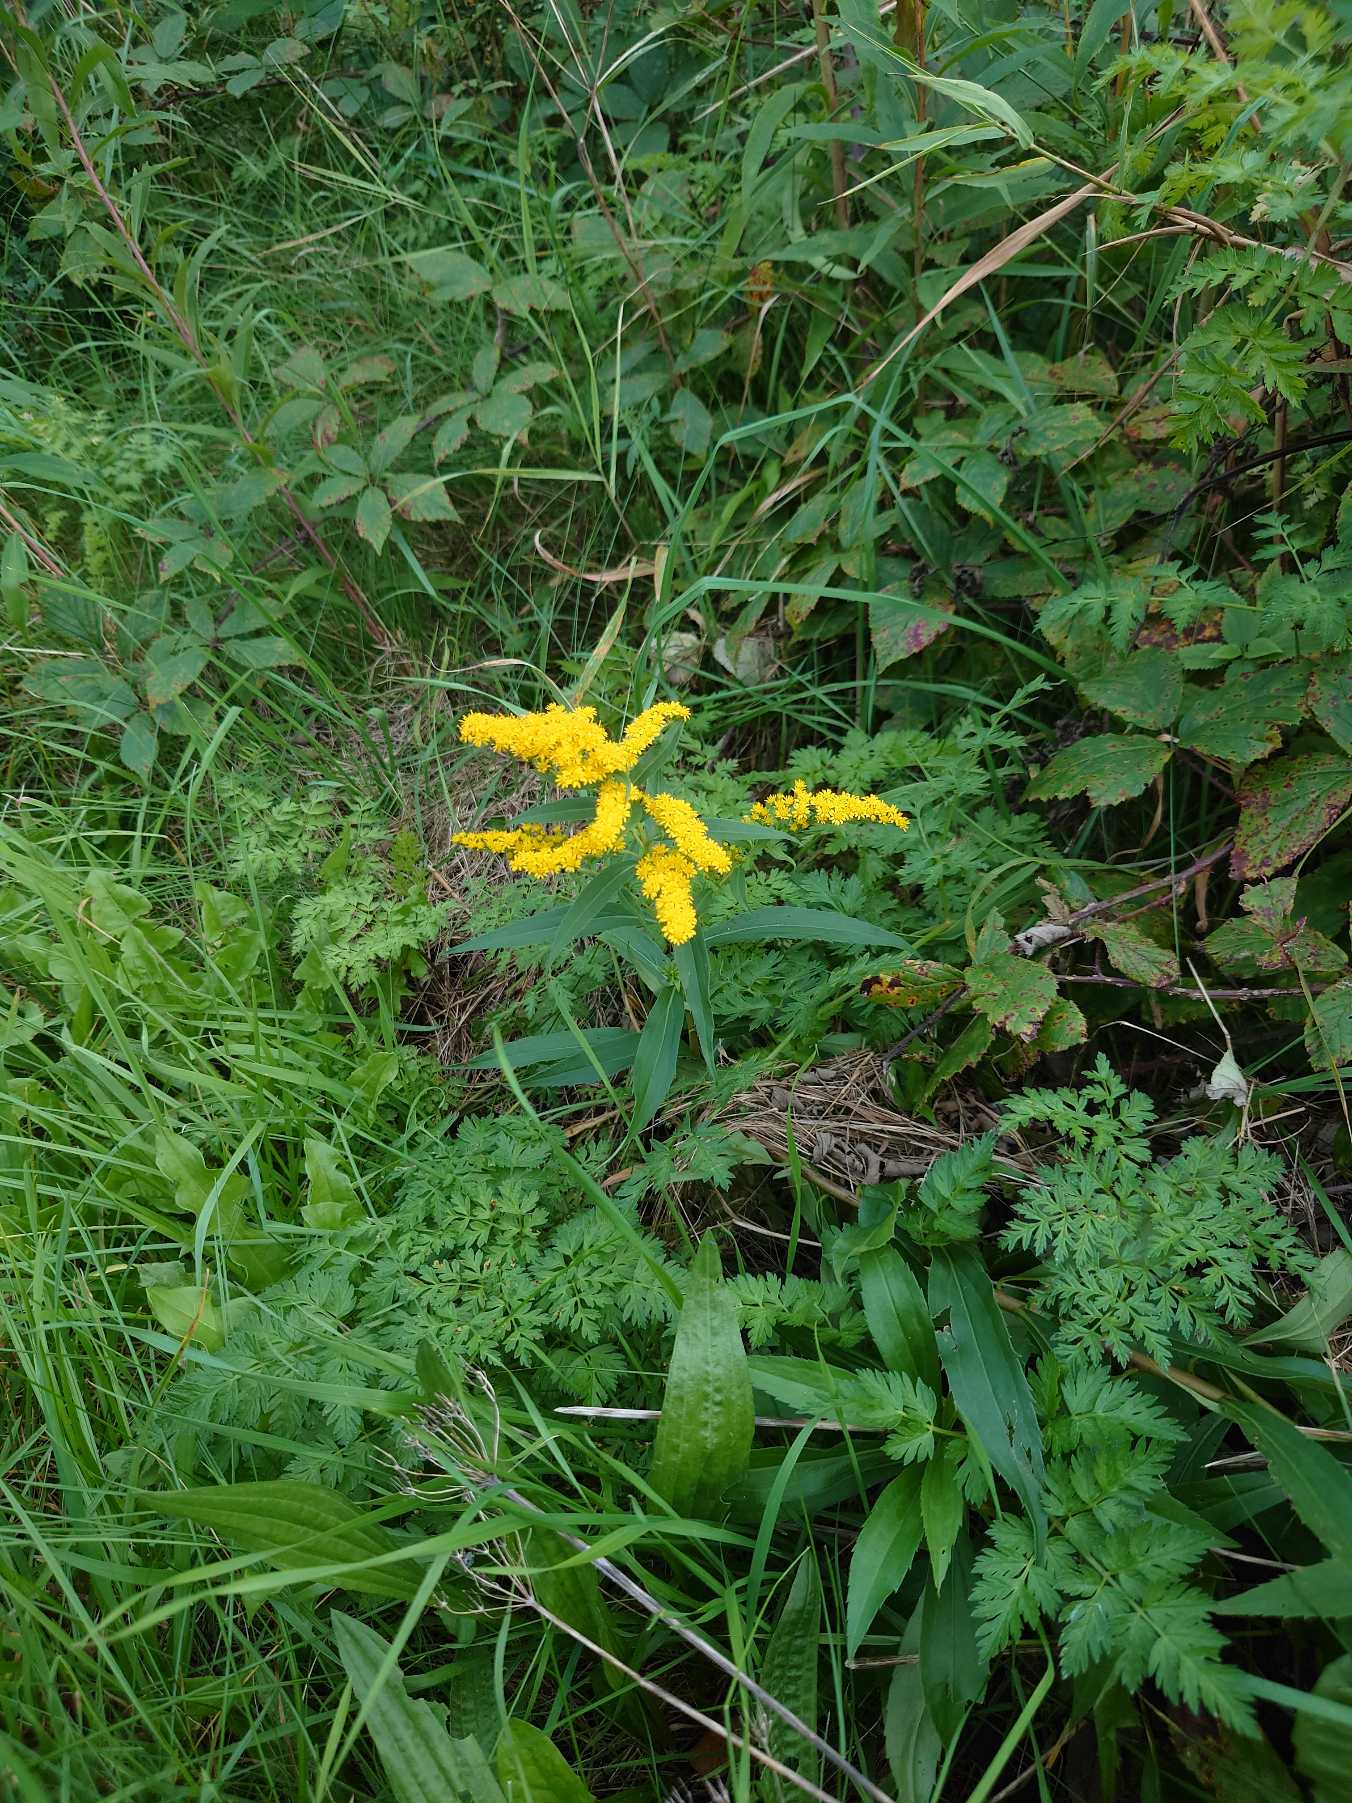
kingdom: Plantae
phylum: Tracheophyta
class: Magnoliopsida
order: Asterales
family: Asteraceae
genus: Solidago
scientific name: Solidago gigantea
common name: Sildig gyldenris
